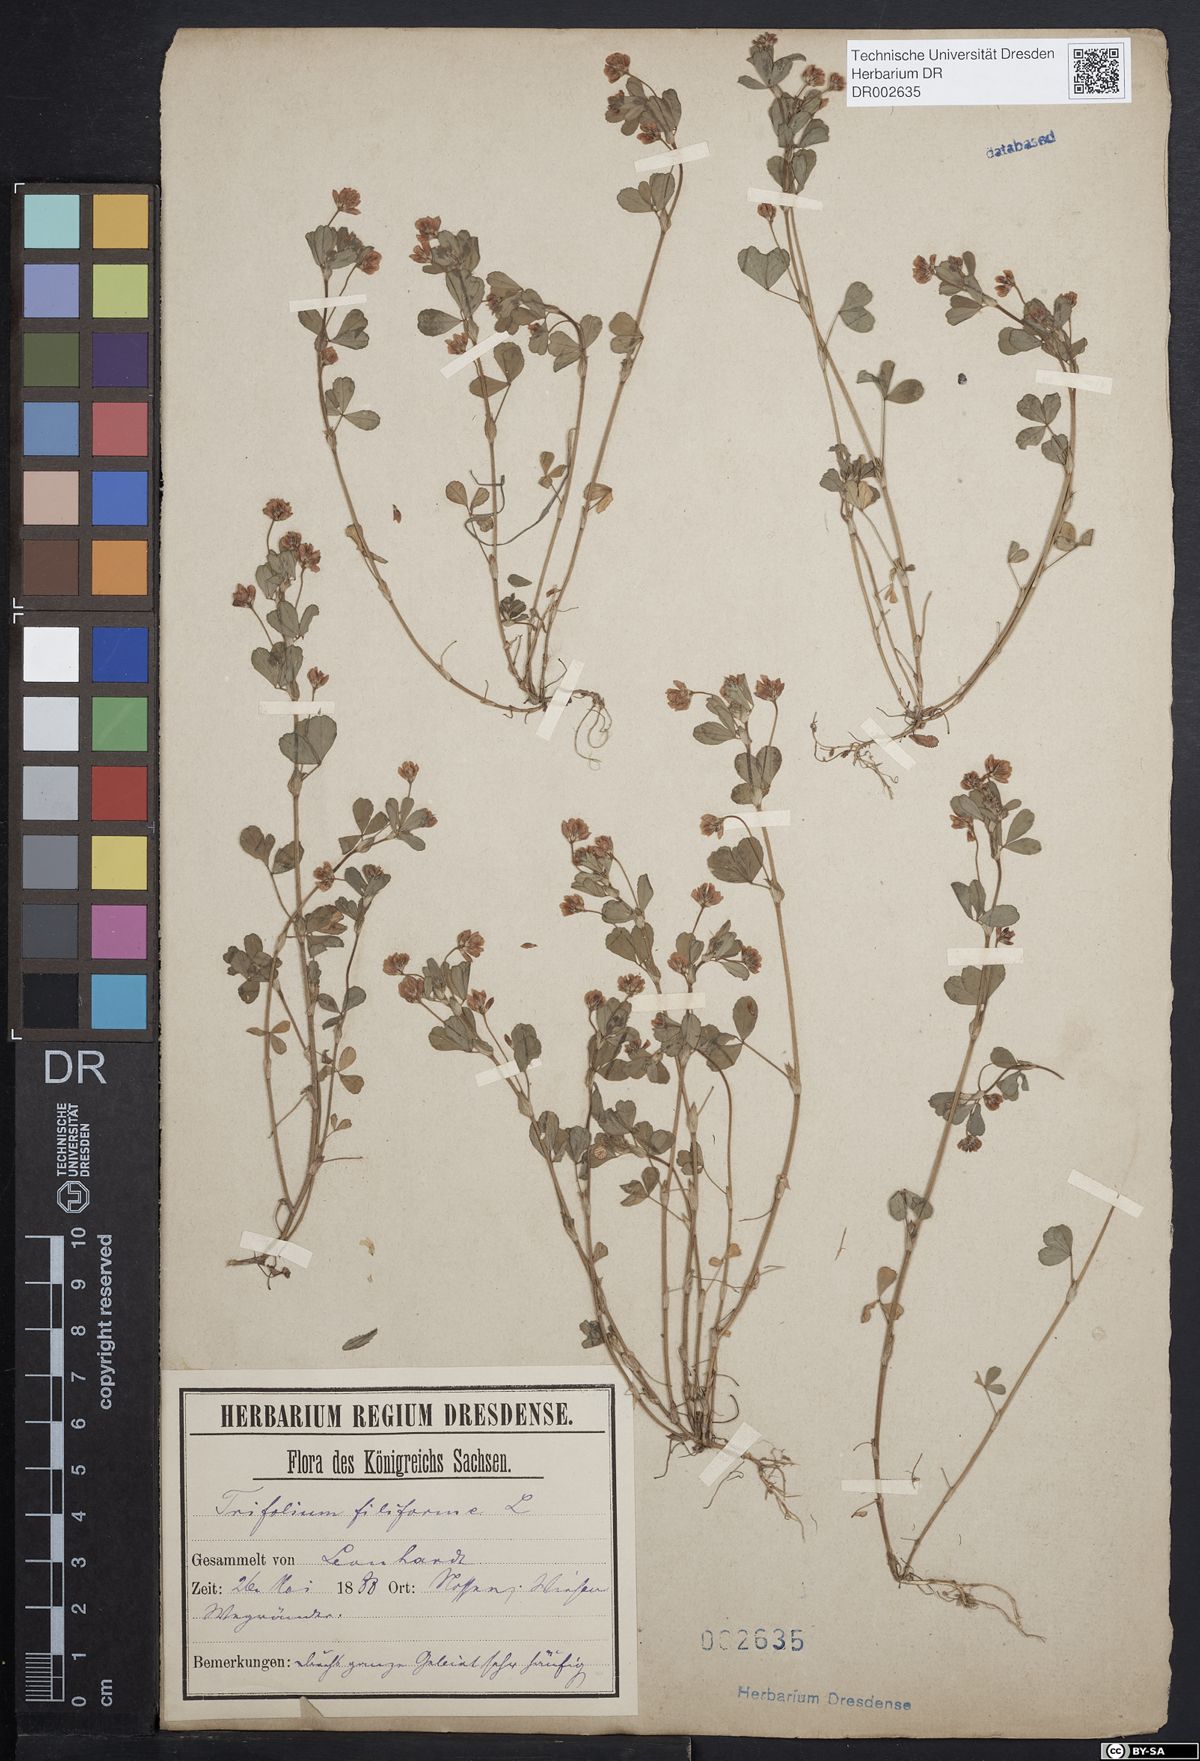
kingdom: Plantae
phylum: Tracheophyta
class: Magnoliopsida
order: Fabales
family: Fabaceae
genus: Trifolium
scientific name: Trifolium dubium
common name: Suckling clover
